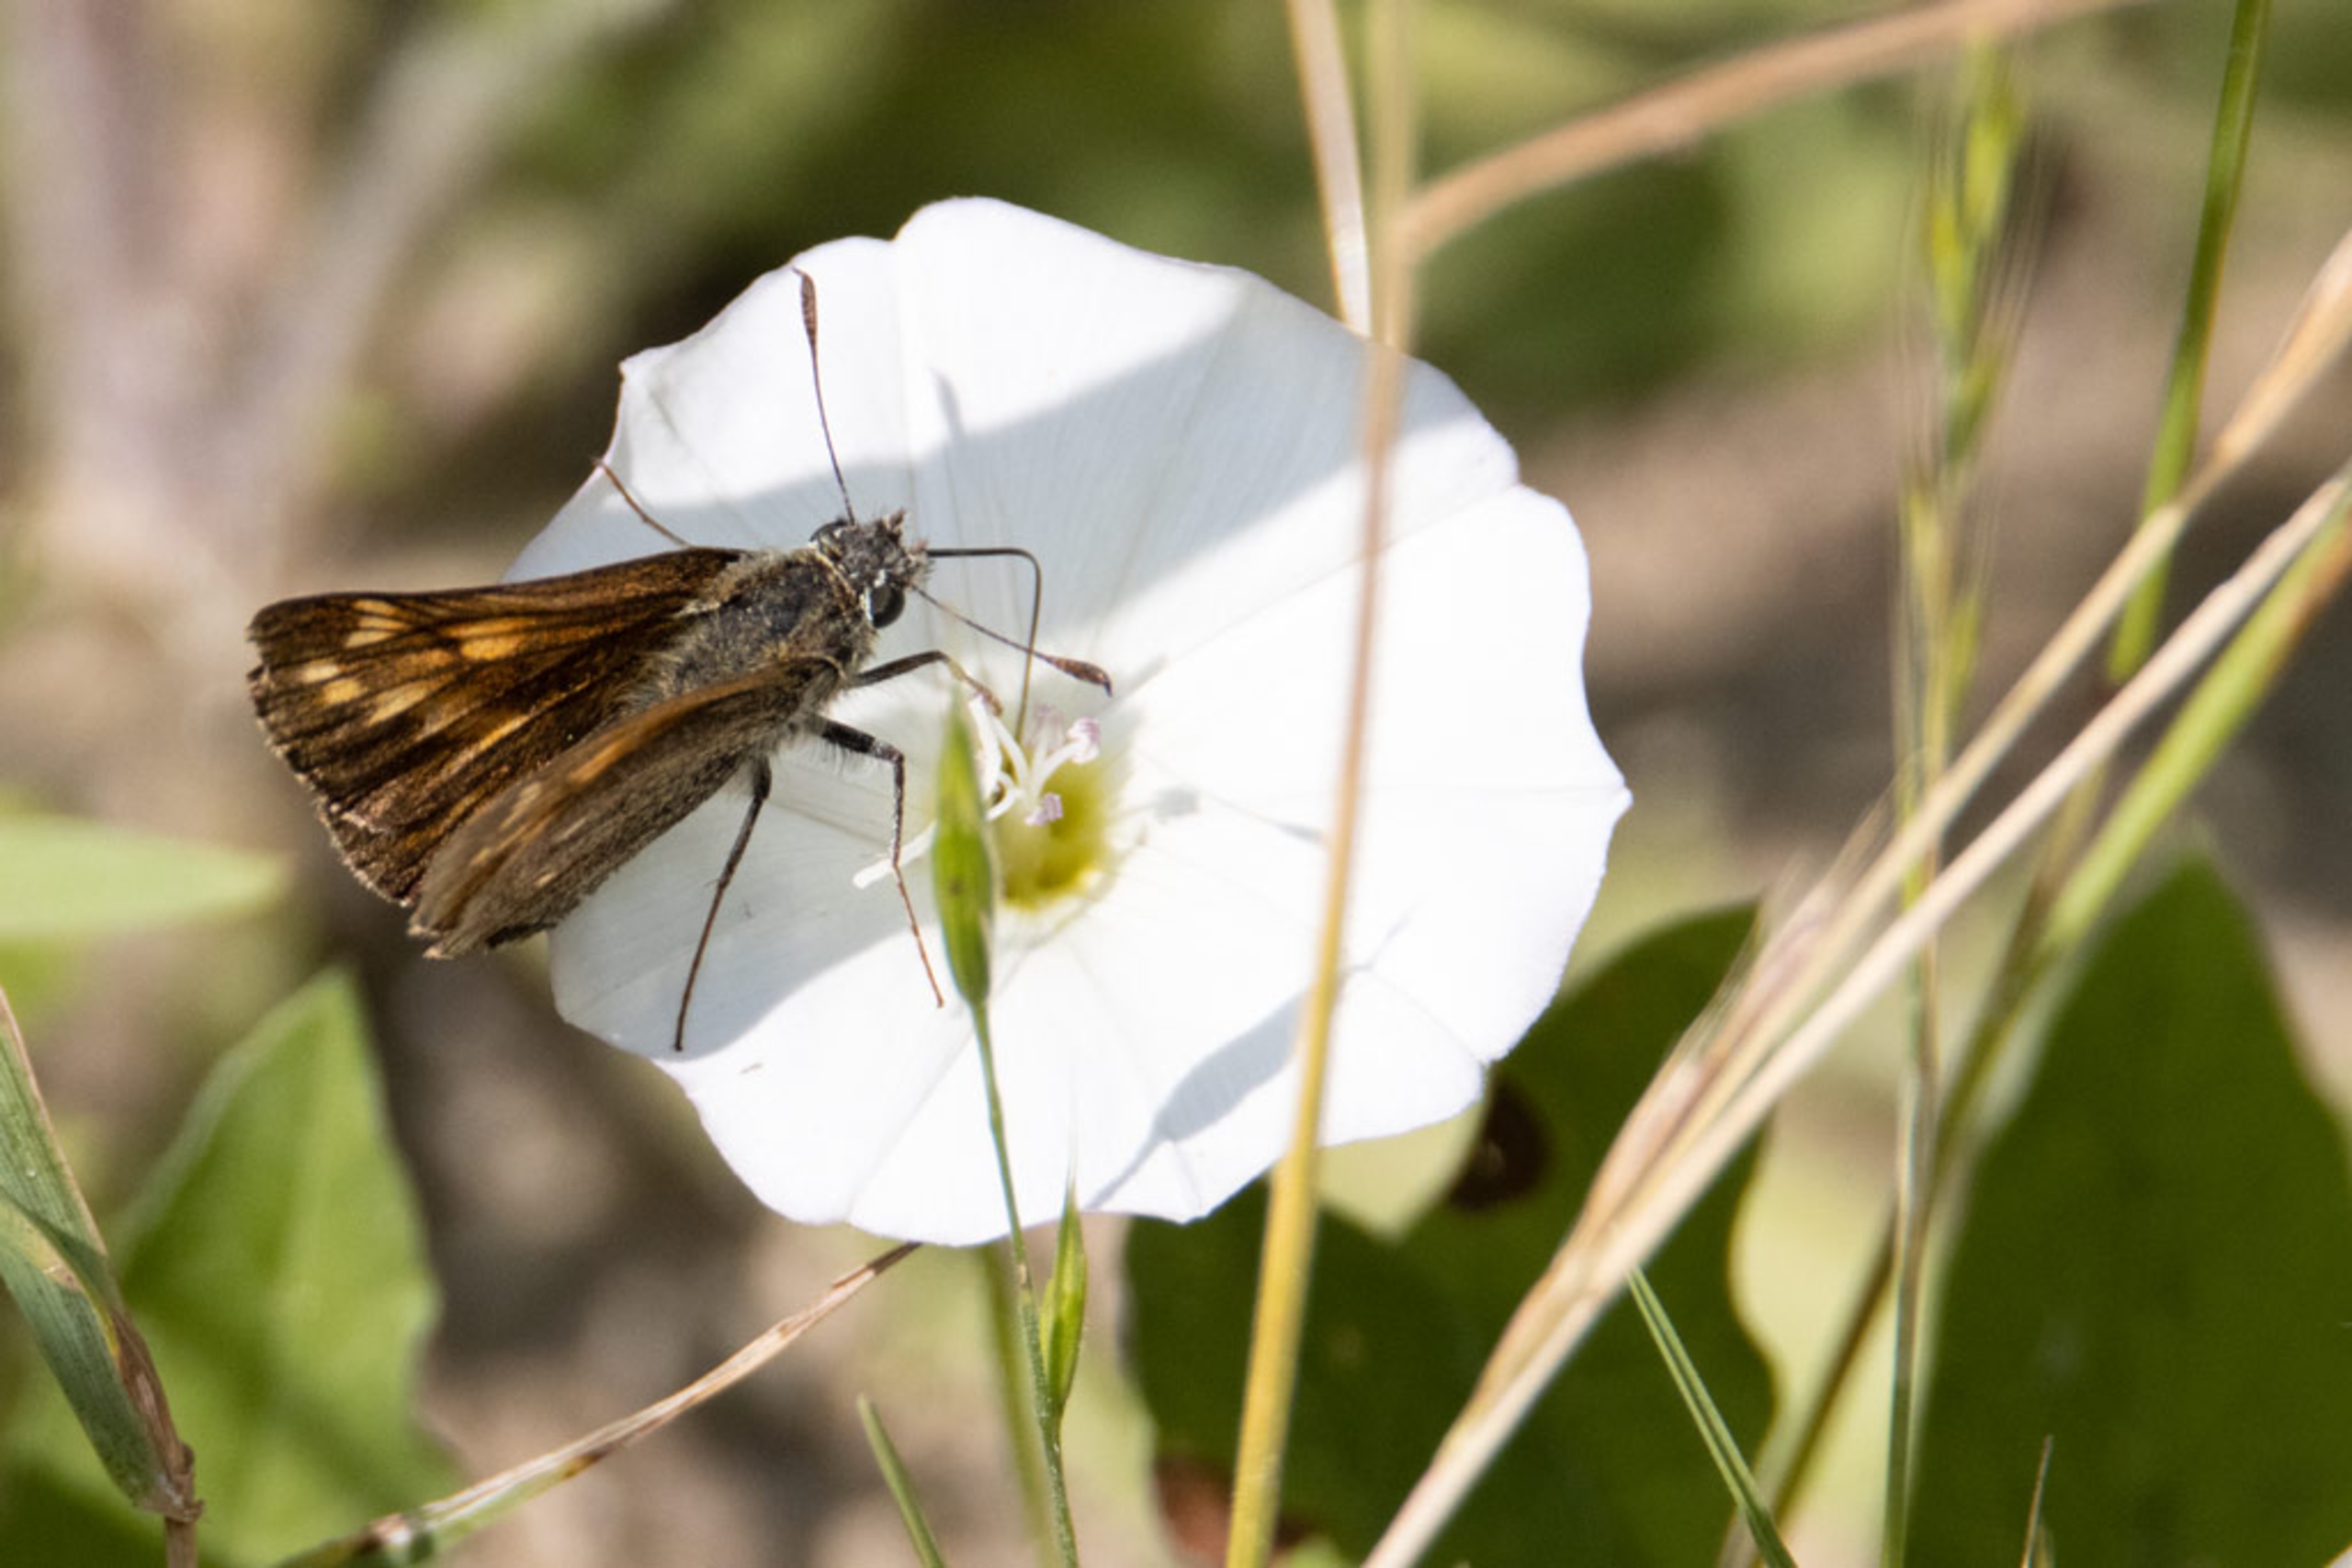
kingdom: Animalia
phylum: Arthropoda
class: Insecta
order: Lepidoptera
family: Hesperiidae
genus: Ochlodes
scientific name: Ochlodes venata
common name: Stor bredpande
